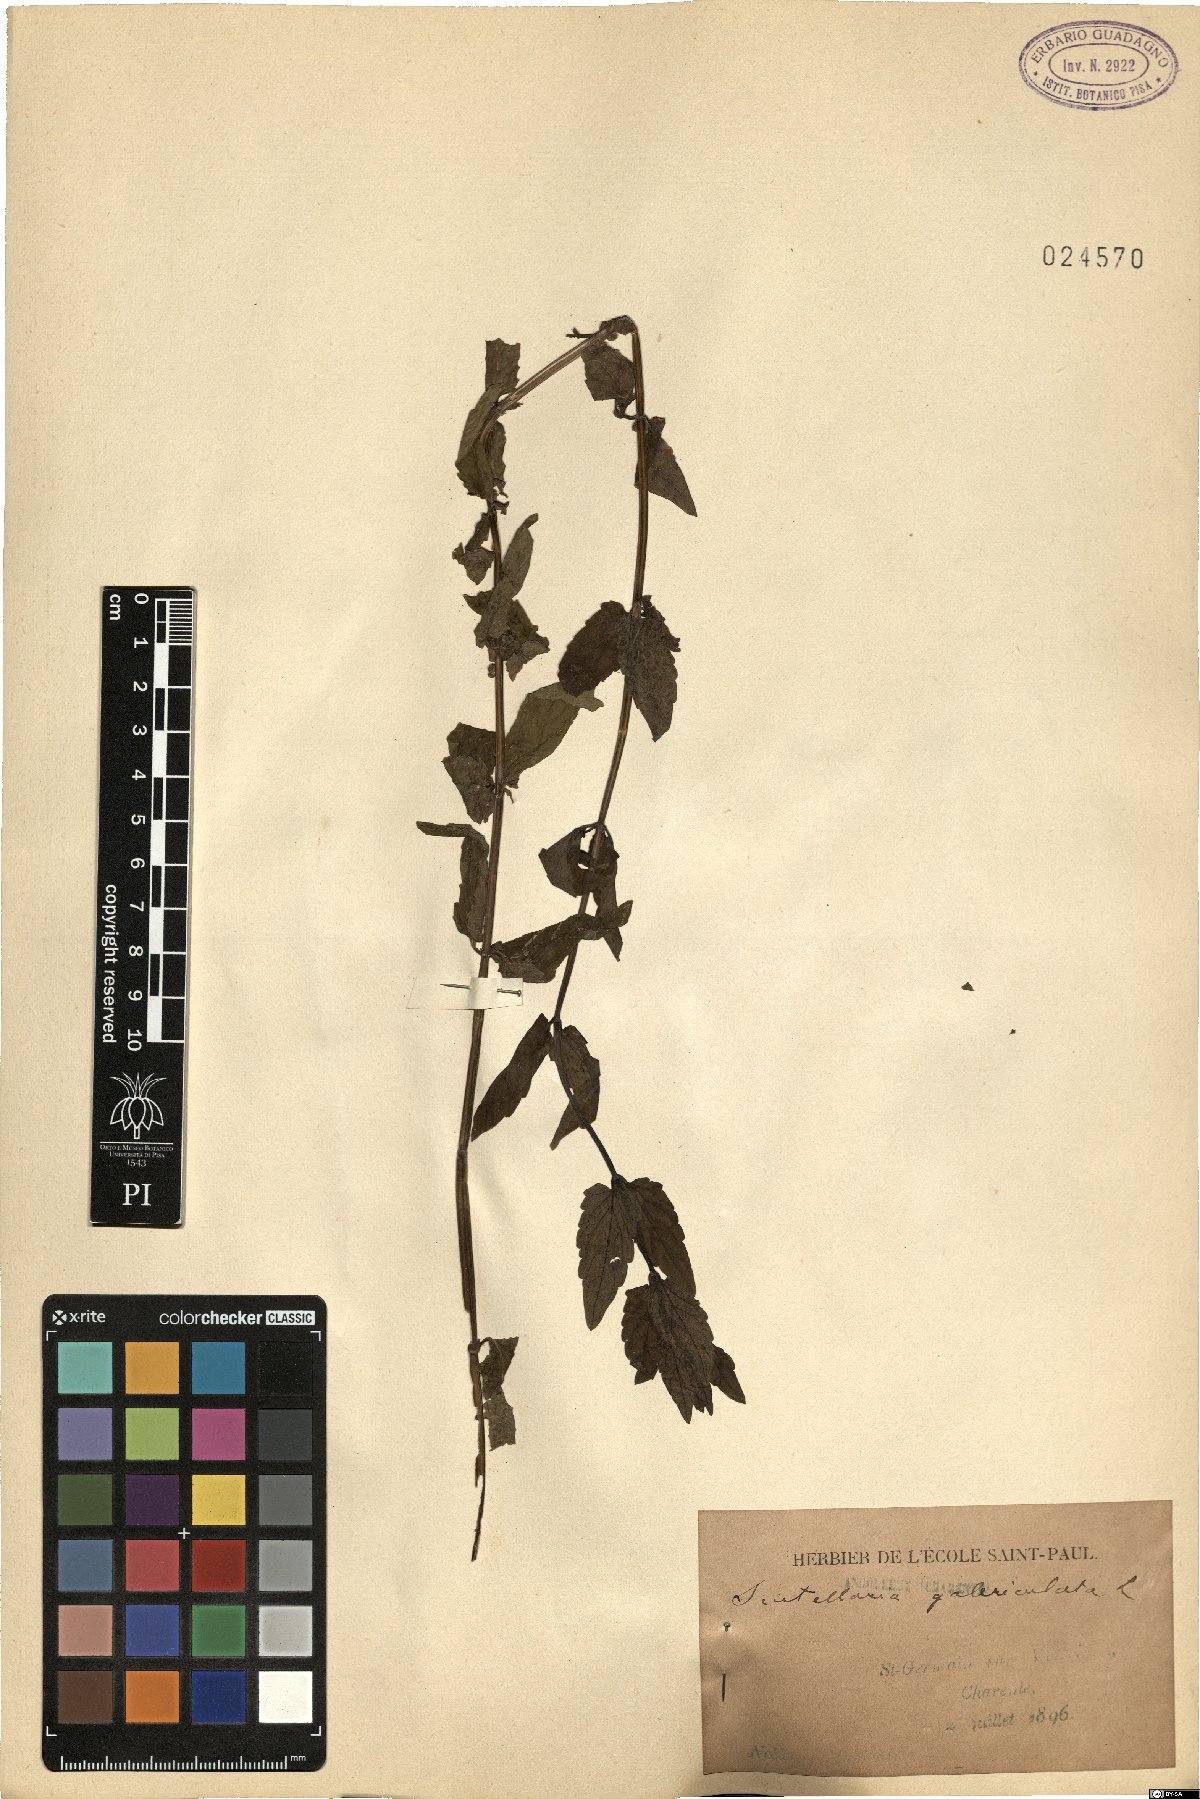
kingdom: Plantae
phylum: Tracheophyta
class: Magnoliopsida
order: Lamiales
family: Lamiaceae
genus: Scutellaria
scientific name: Scutellaria galericulata
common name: Skullcap
